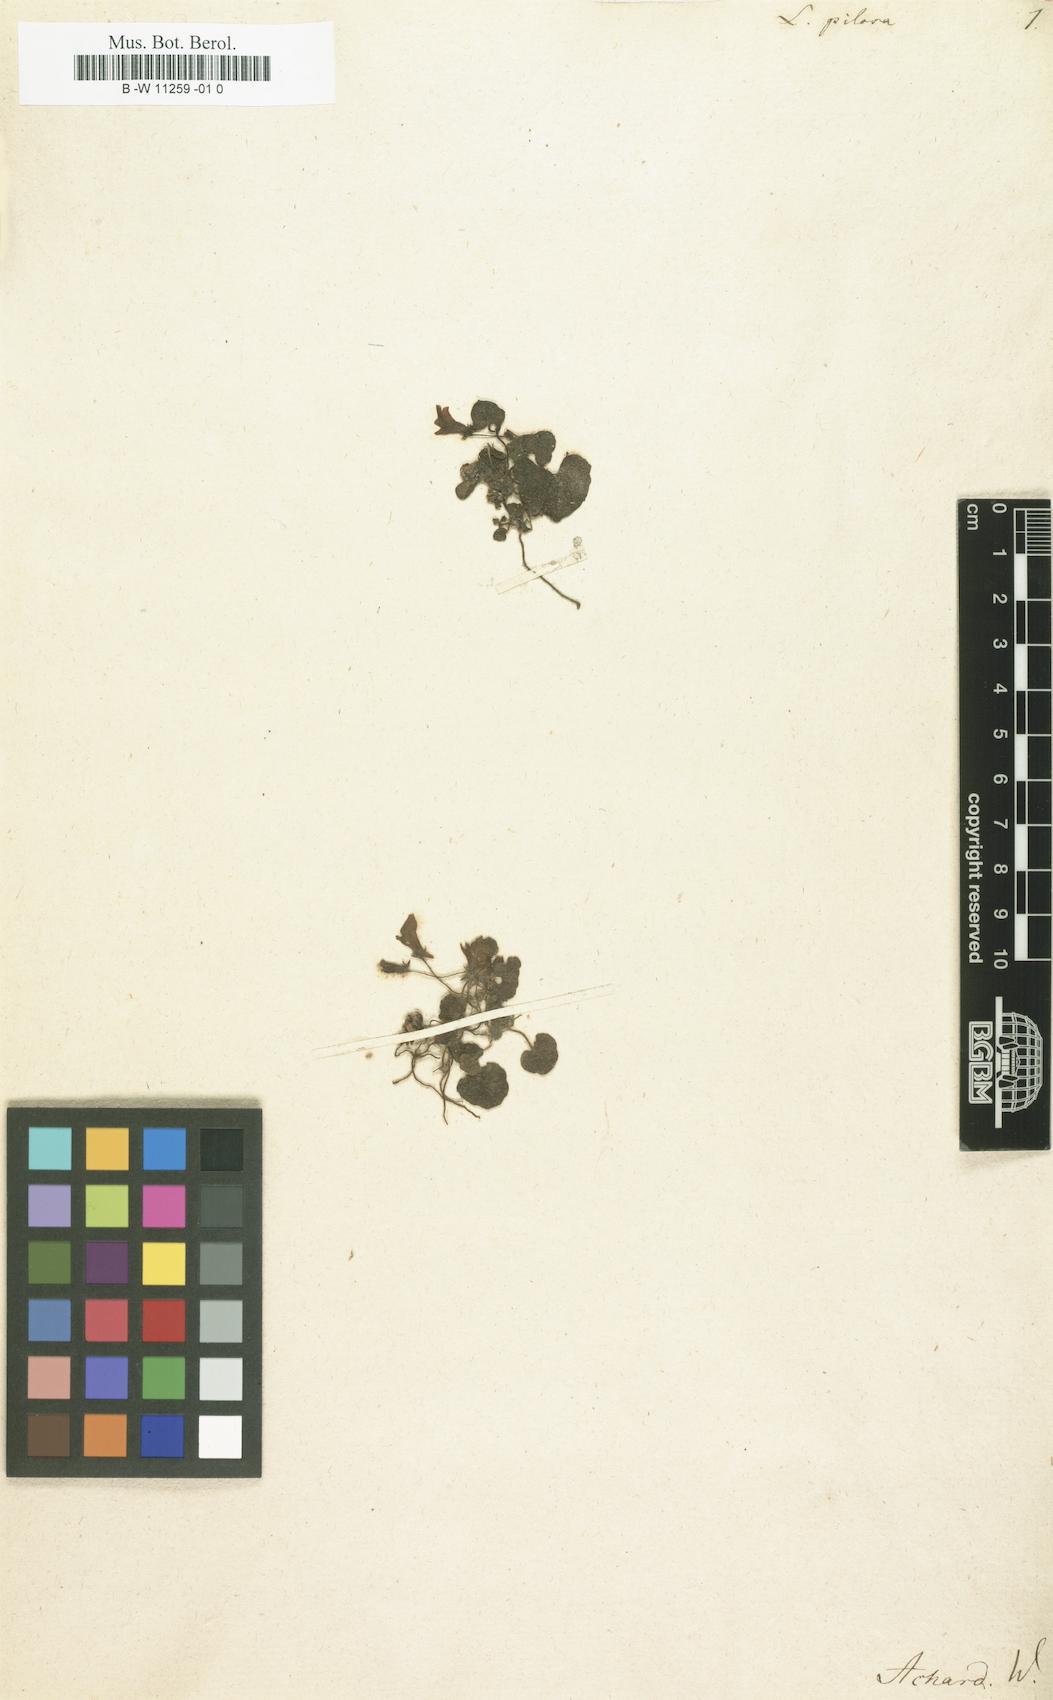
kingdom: Plantae
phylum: Tracheophyta
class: Magnoliopsida
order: Lamiales
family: Plantaginaceae
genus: Sibthorpia
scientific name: Sibthorpia europaea
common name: Cornish moneywort
